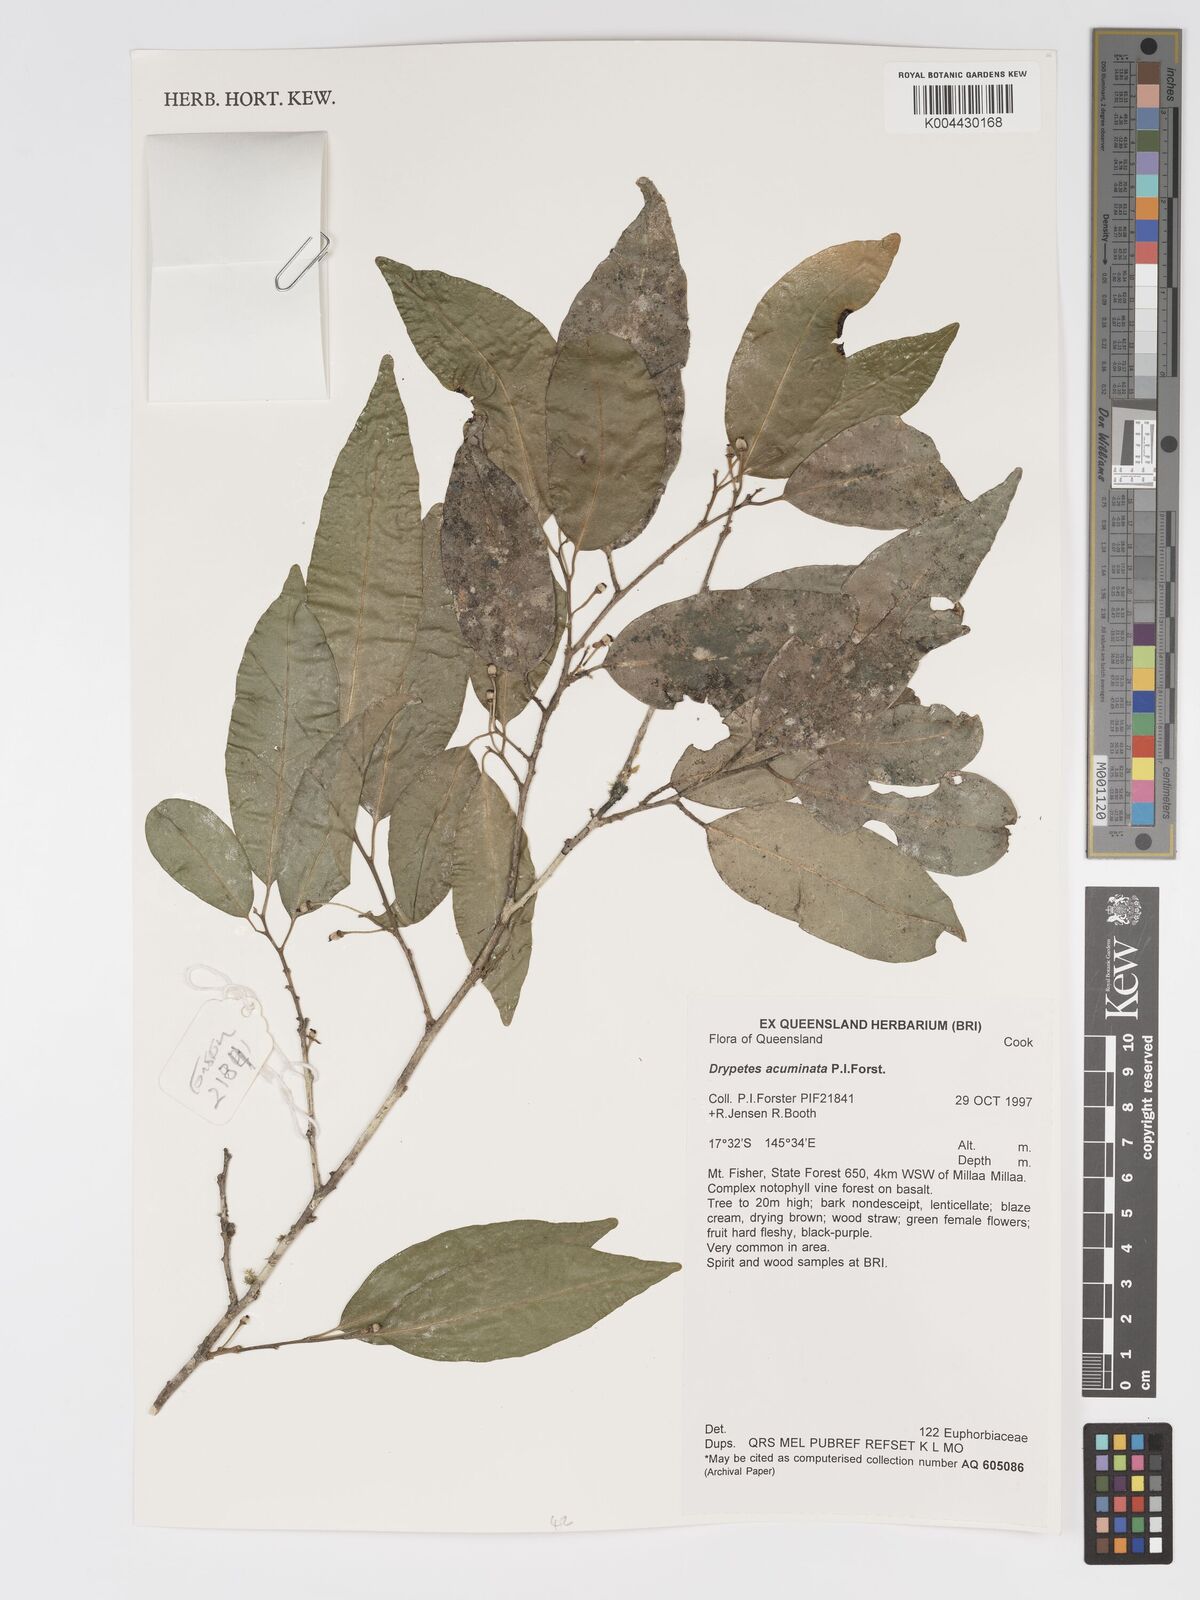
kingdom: Plantae
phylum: Tracheophyta
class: Magnoliopsida
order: Malpighiales
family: Putranjivaceae
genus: Drypetes
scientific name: Drypetes acuminata
